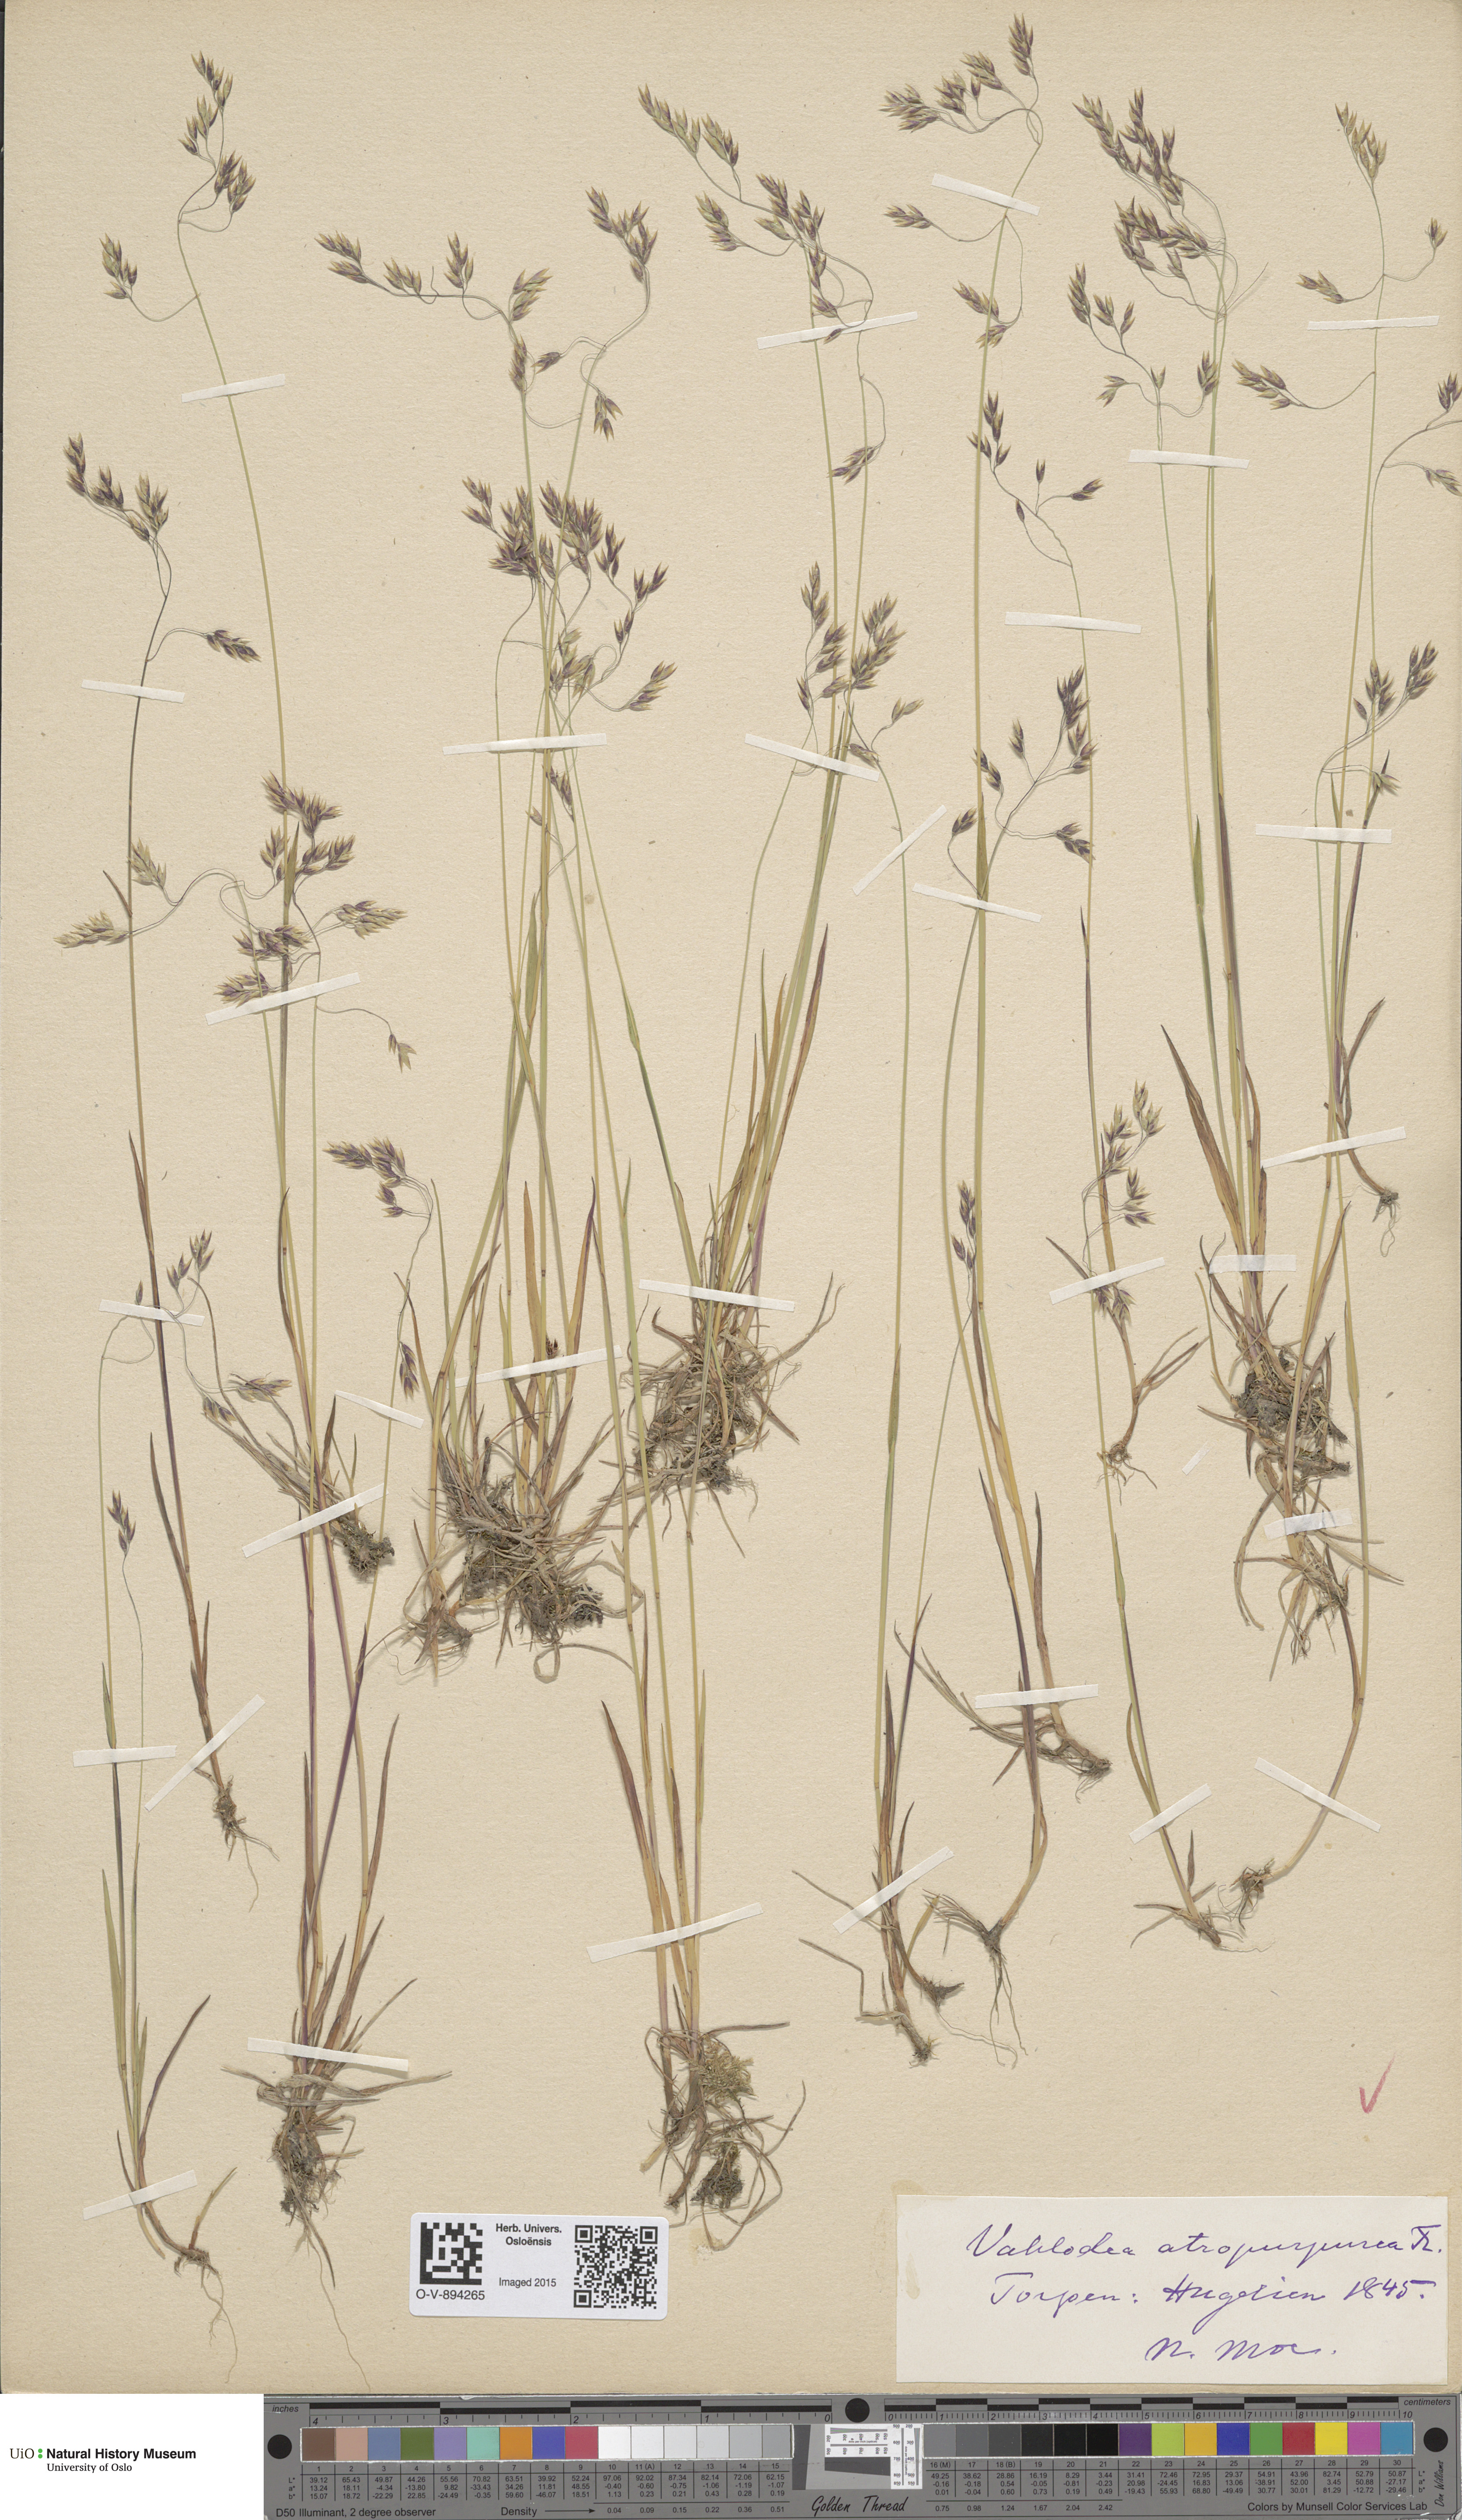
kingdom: Plantae
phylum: Tracheophyta
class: Liliopsida
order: Poales
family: Poaceae
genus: Vahlodea
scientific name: Vahlodea atropurpurea
